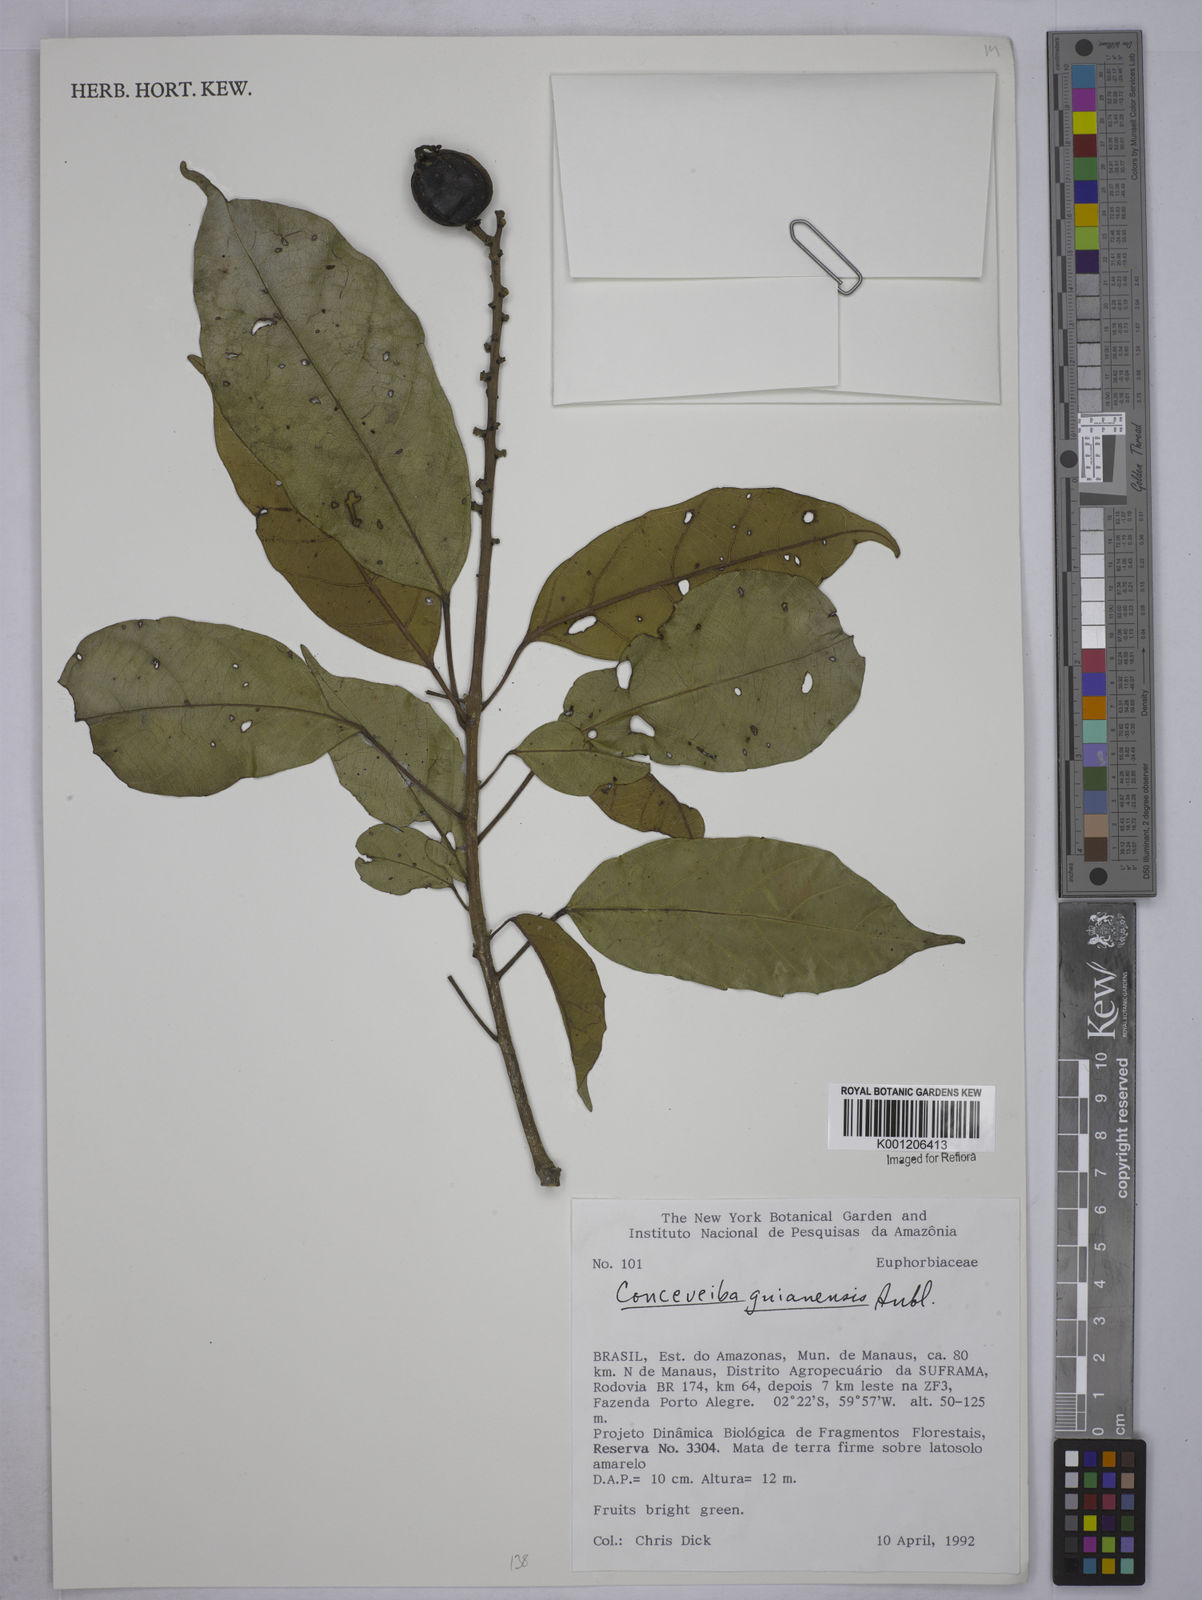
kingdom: Plantae
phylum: Tracheophyta
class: Magnoliopsida
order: Malpighiales
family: Euphorbiaceae
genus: Conceveiba
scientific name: Conceveiba guianensis
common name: Poatoru
